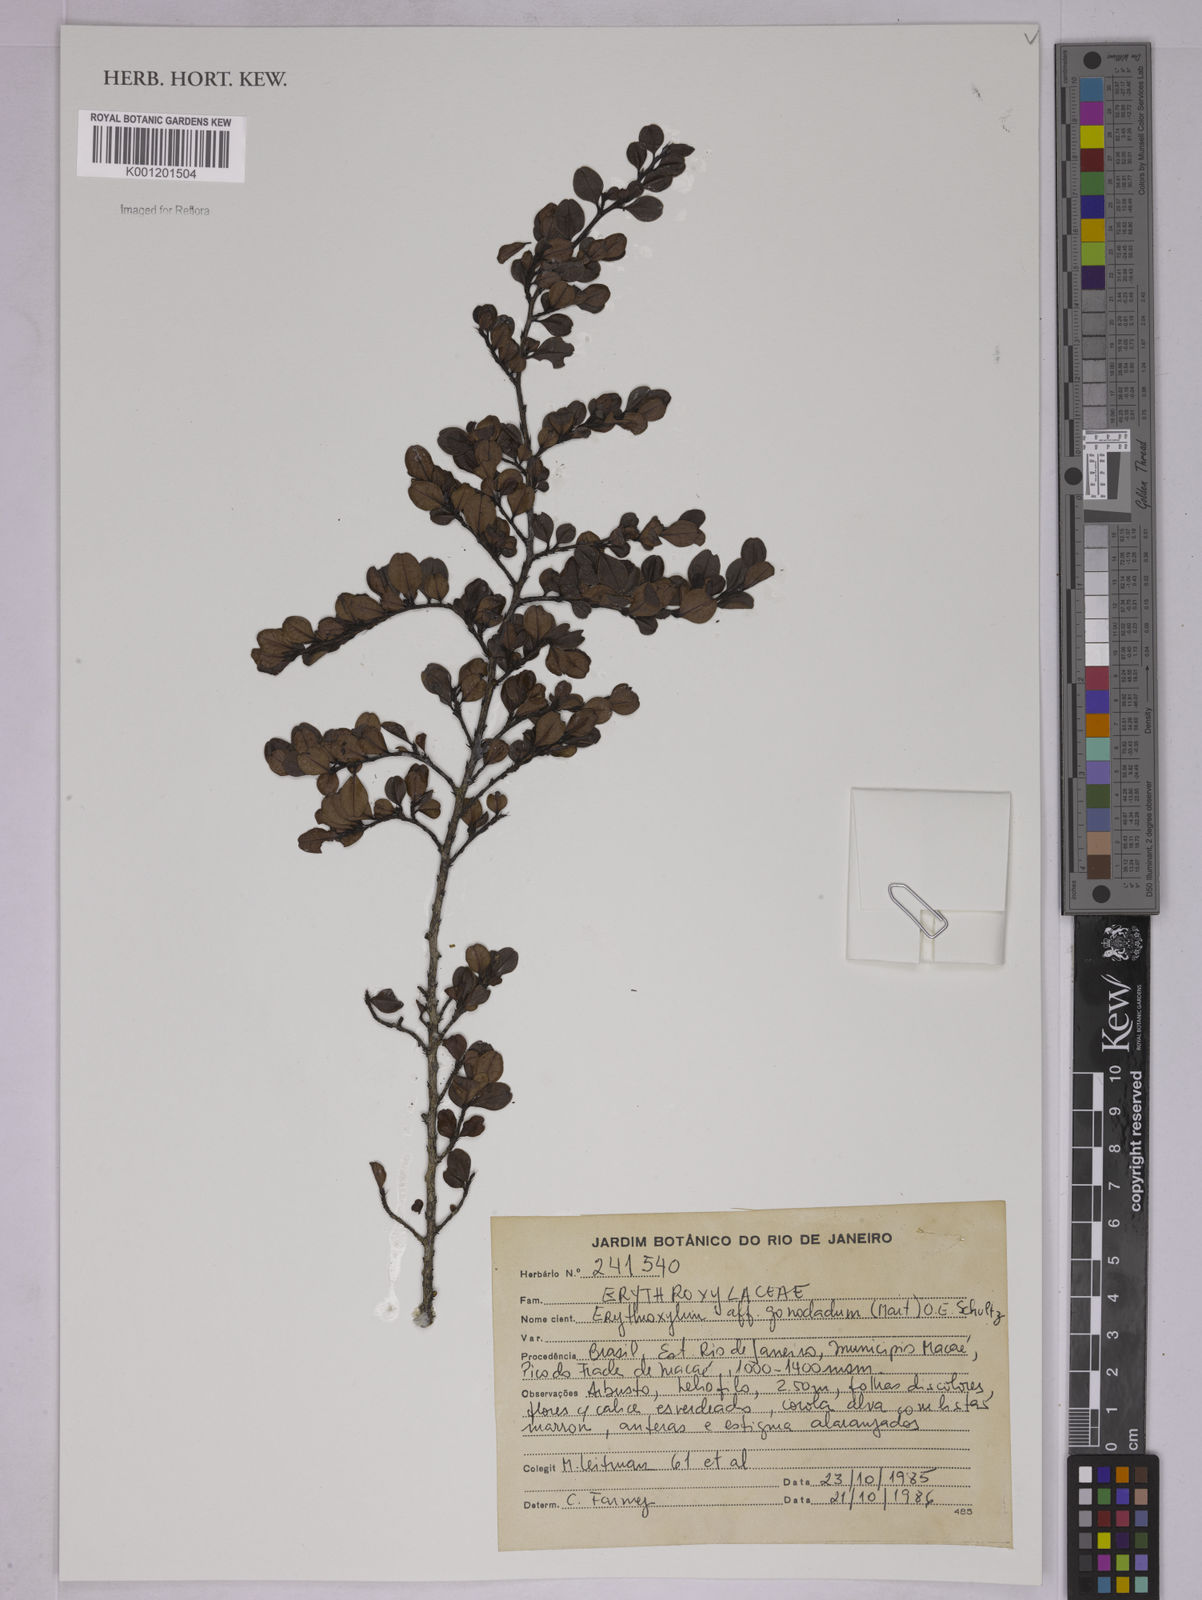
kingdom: Plantae
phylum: Tracheophyta
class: Magnoliopsida
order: Malpighiales
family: Erythroxylaceae
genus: Erythroxylum
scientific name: Erythroxylum
